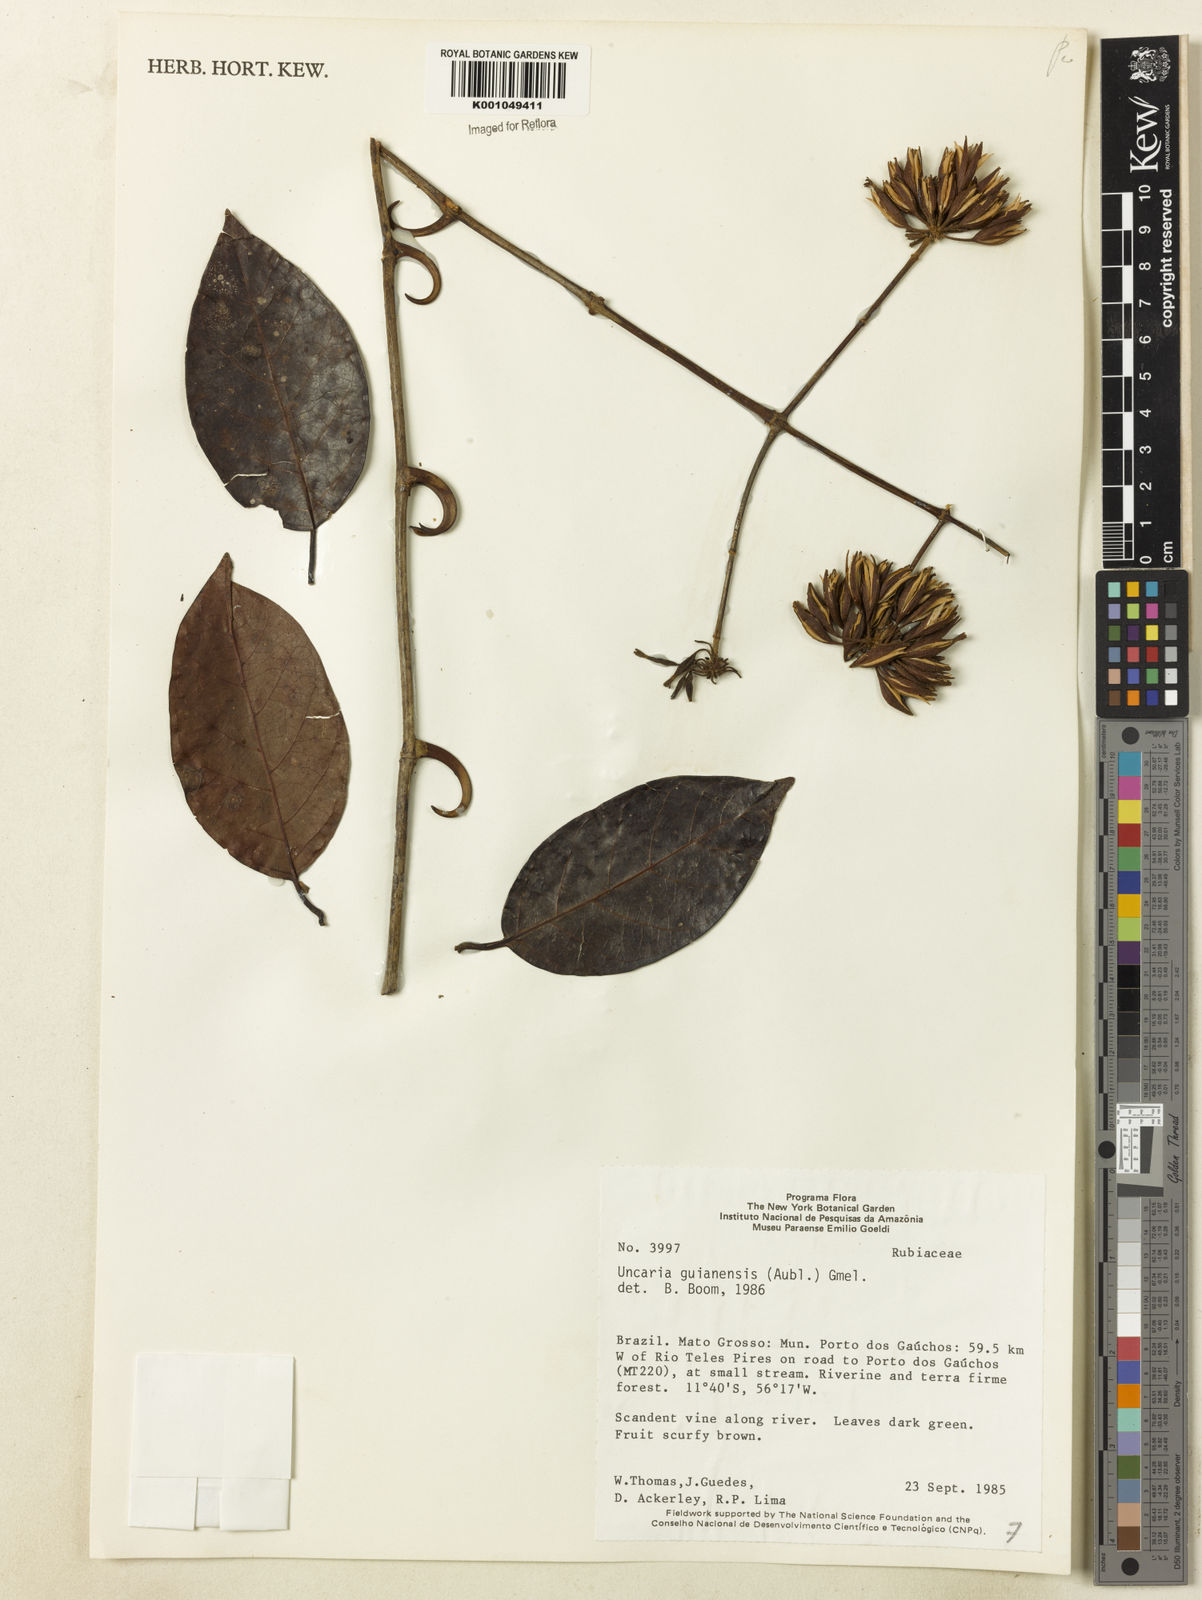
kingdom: Plantae
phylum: Tracheophyta
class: Magnoliopsida
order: Gentianales
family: Rubiaceae
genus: Uncaria
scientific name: Uncaria guianensis
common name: Cat's-claw
